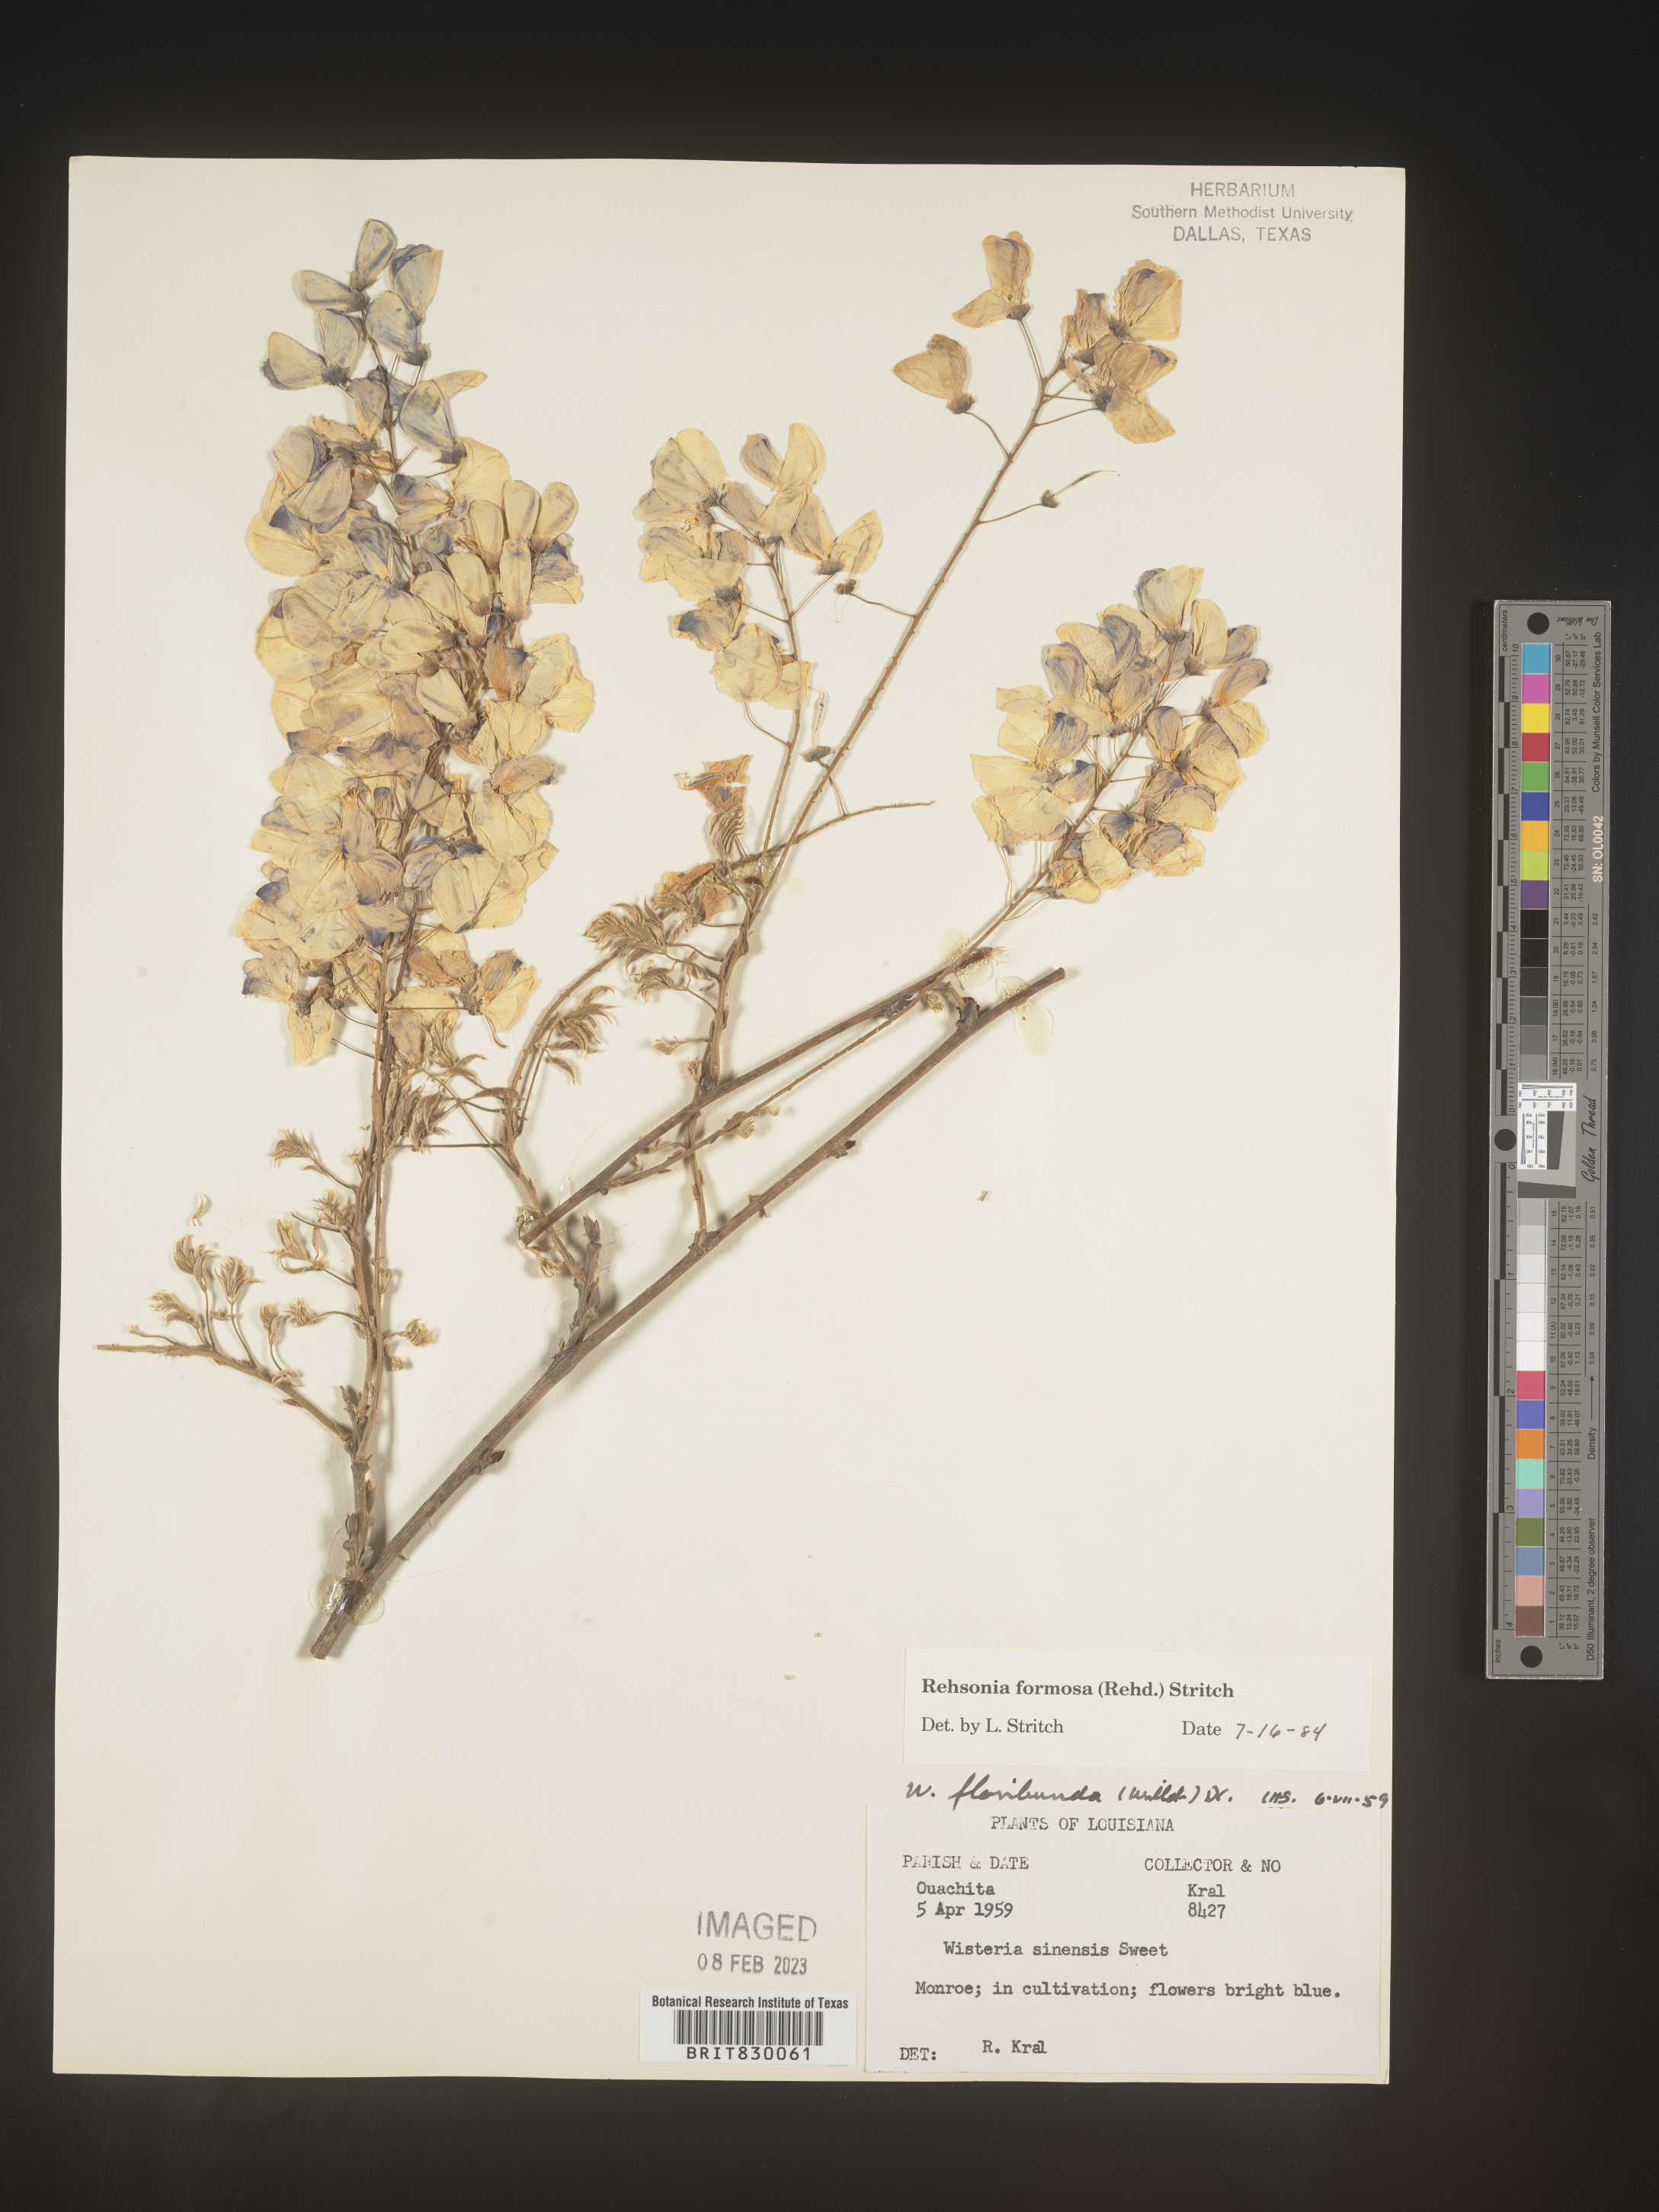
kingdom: Plantae
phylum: Tracheophyta
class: Magnoliopsida
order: Fabales
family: Fabaceae
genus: Wisteria
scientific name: Wisteria
